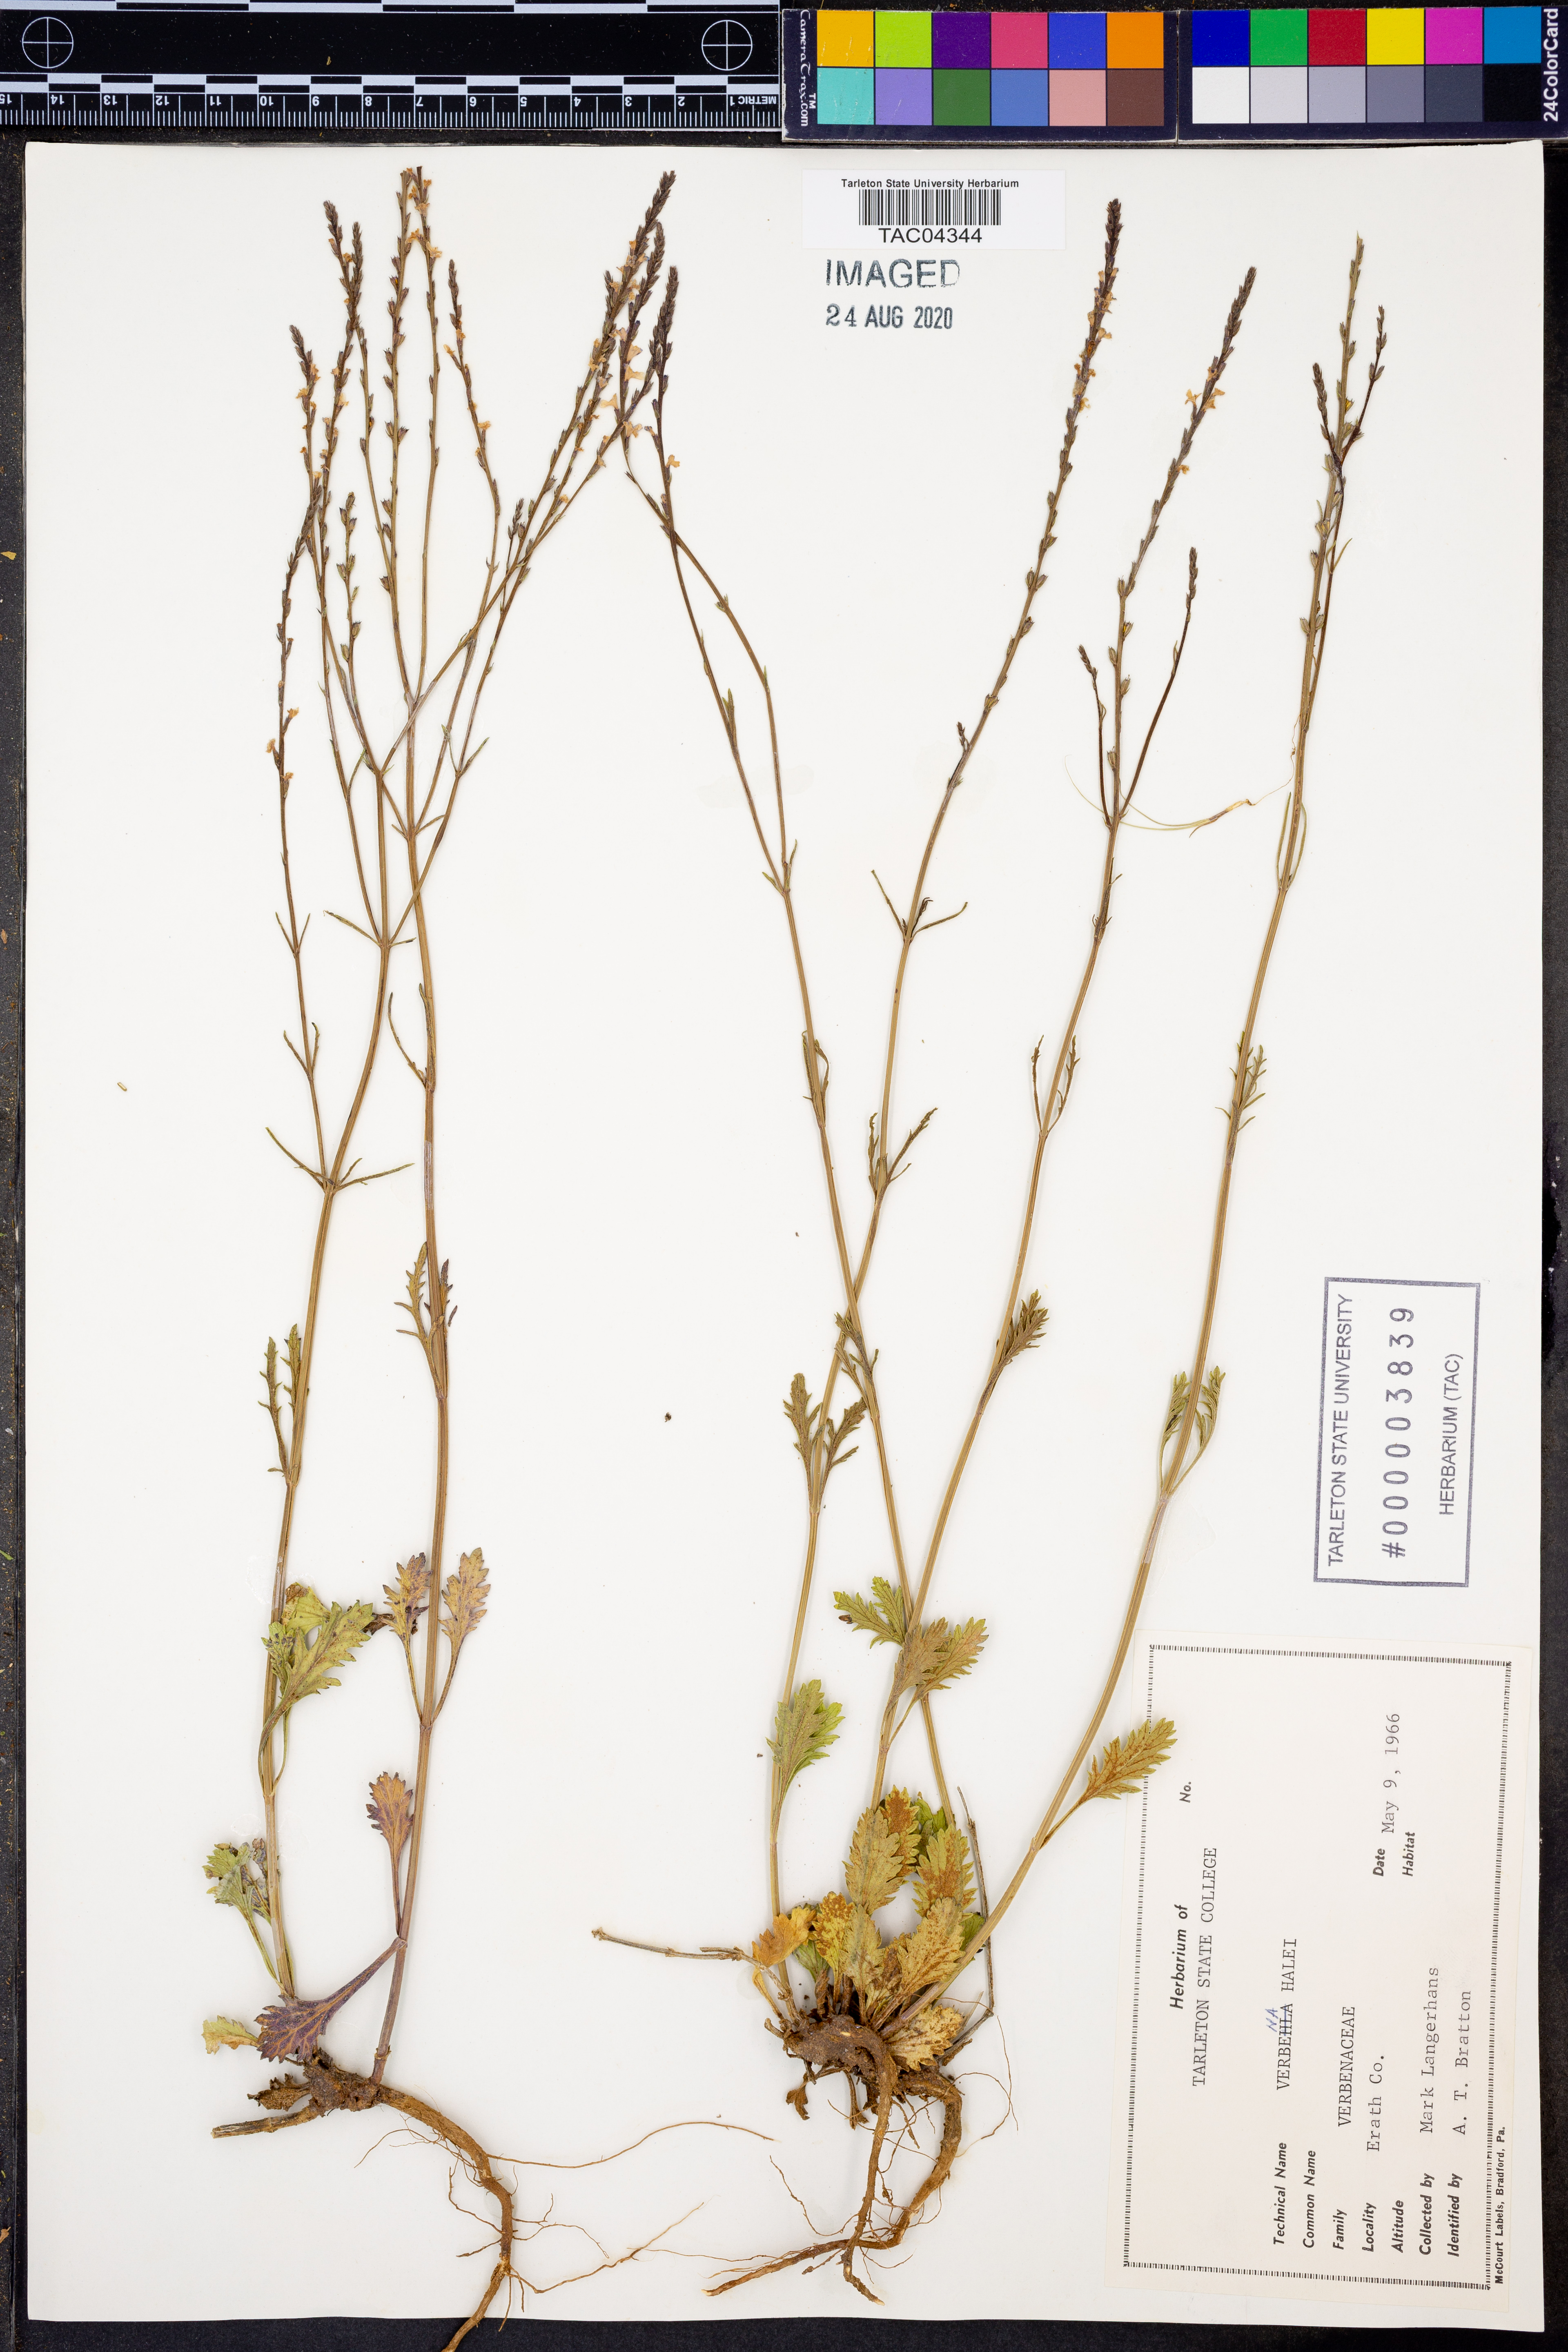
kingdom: Plantae
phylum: Tracheophyta
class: Magnoliopsida
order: Lamiales
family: Verbenaceae
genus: Verbena
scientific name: Verbena halei
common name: Texas vervain
